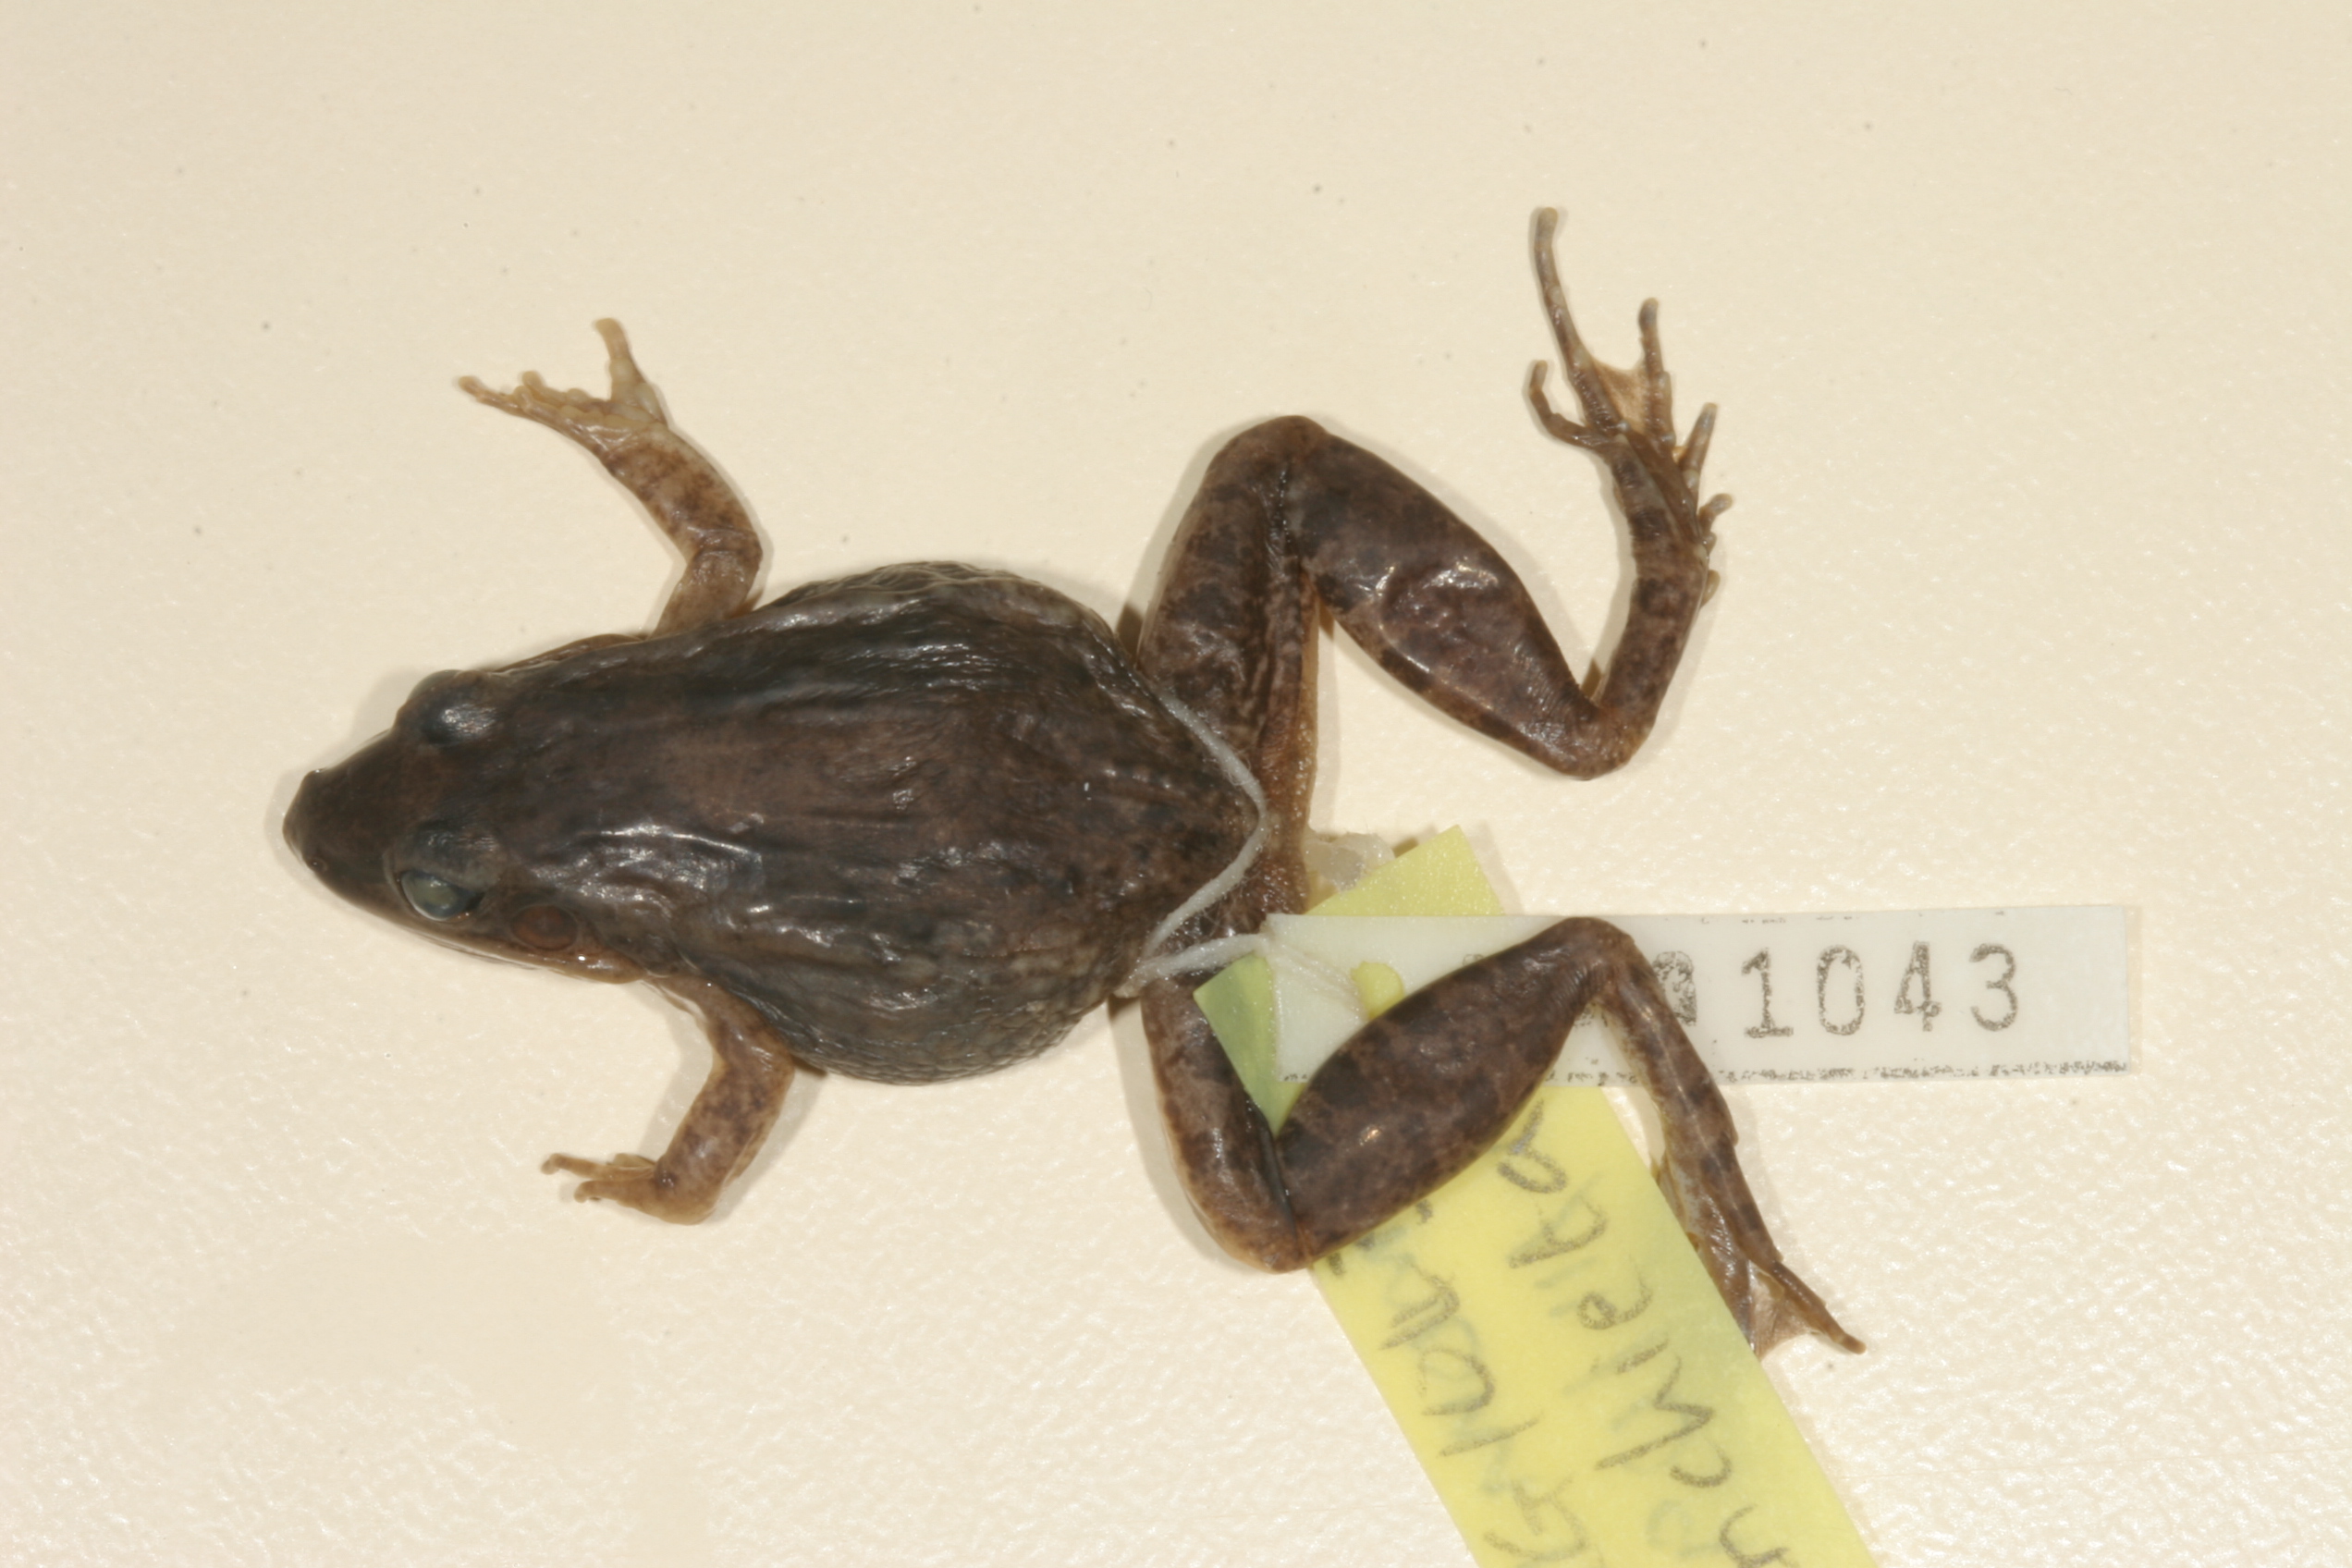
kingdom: Animalia
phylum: Chordata
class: Amphibia
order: Anura
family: Ptychadenidae
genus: Ptychadena
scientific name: Ptychadena anchietae
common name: Anchieta's ridged frog
